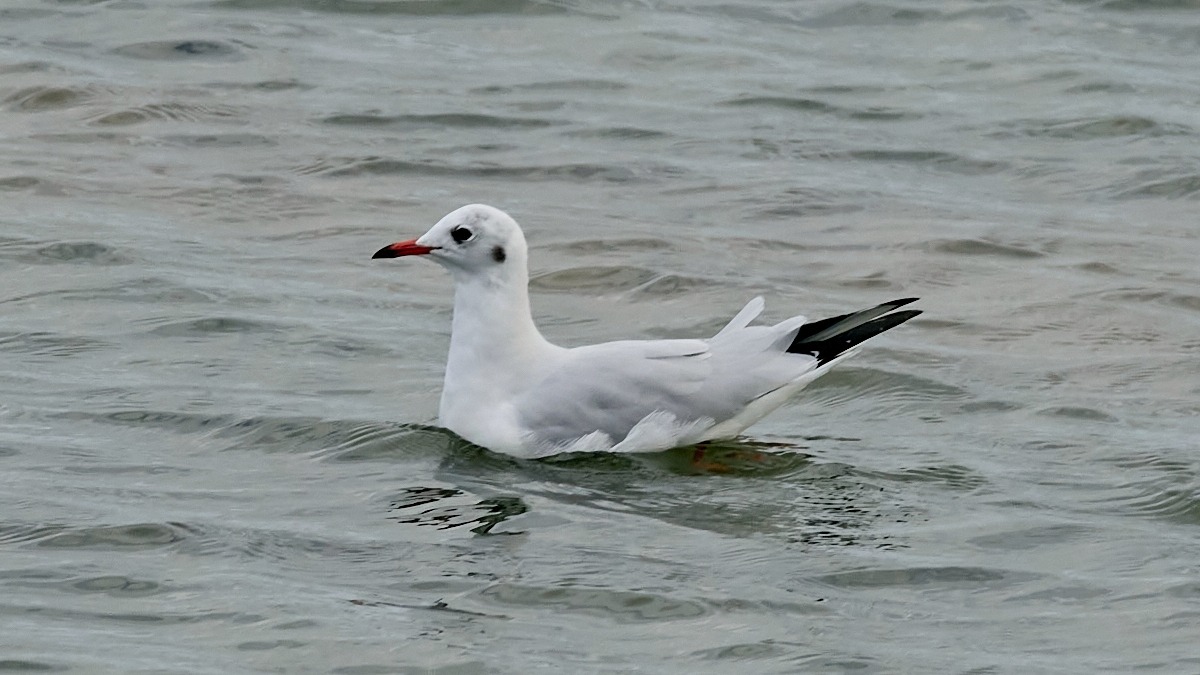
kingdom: Animalia
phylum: Chordata
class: Aves
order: Charadriiformes
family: Laridae
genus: Chroicocephalus
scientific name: Chroicocephalus ridibundus
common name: Hættemåge
